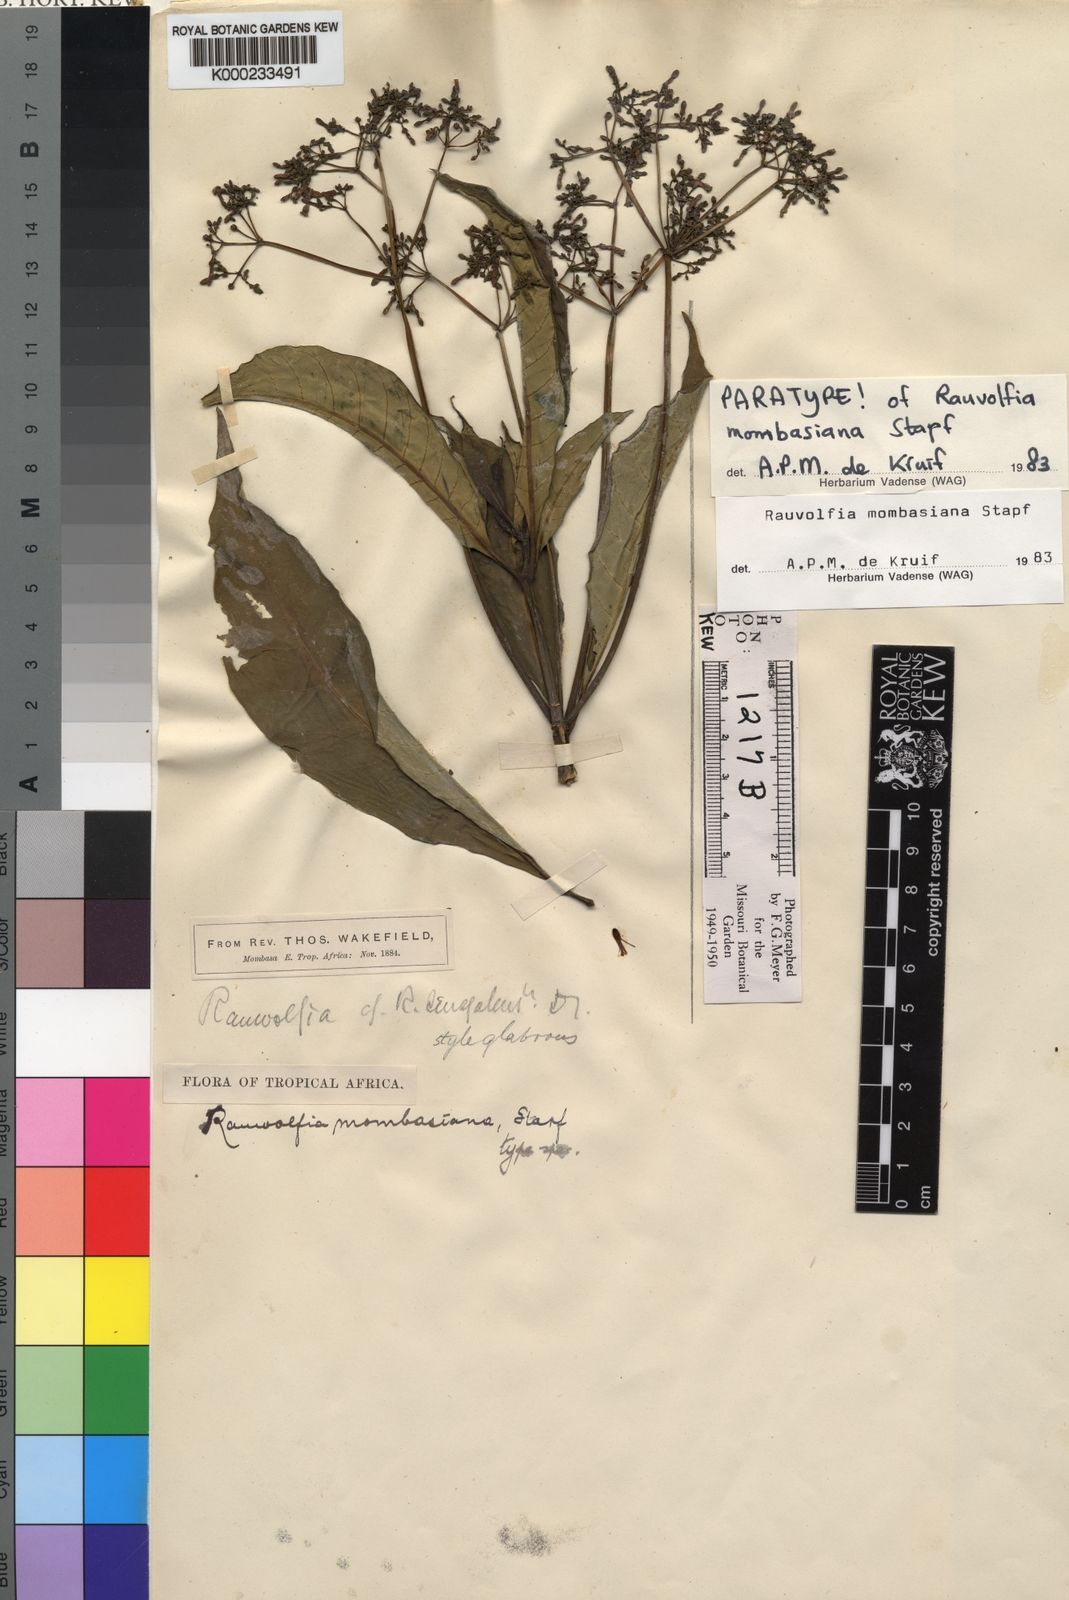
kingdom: Plantae
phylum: Tracheophyta
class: Magnoliopsida
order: Gentianales
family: Apocynaceae
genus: Rauvolfia
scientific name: Rauvolfia mombasiana
